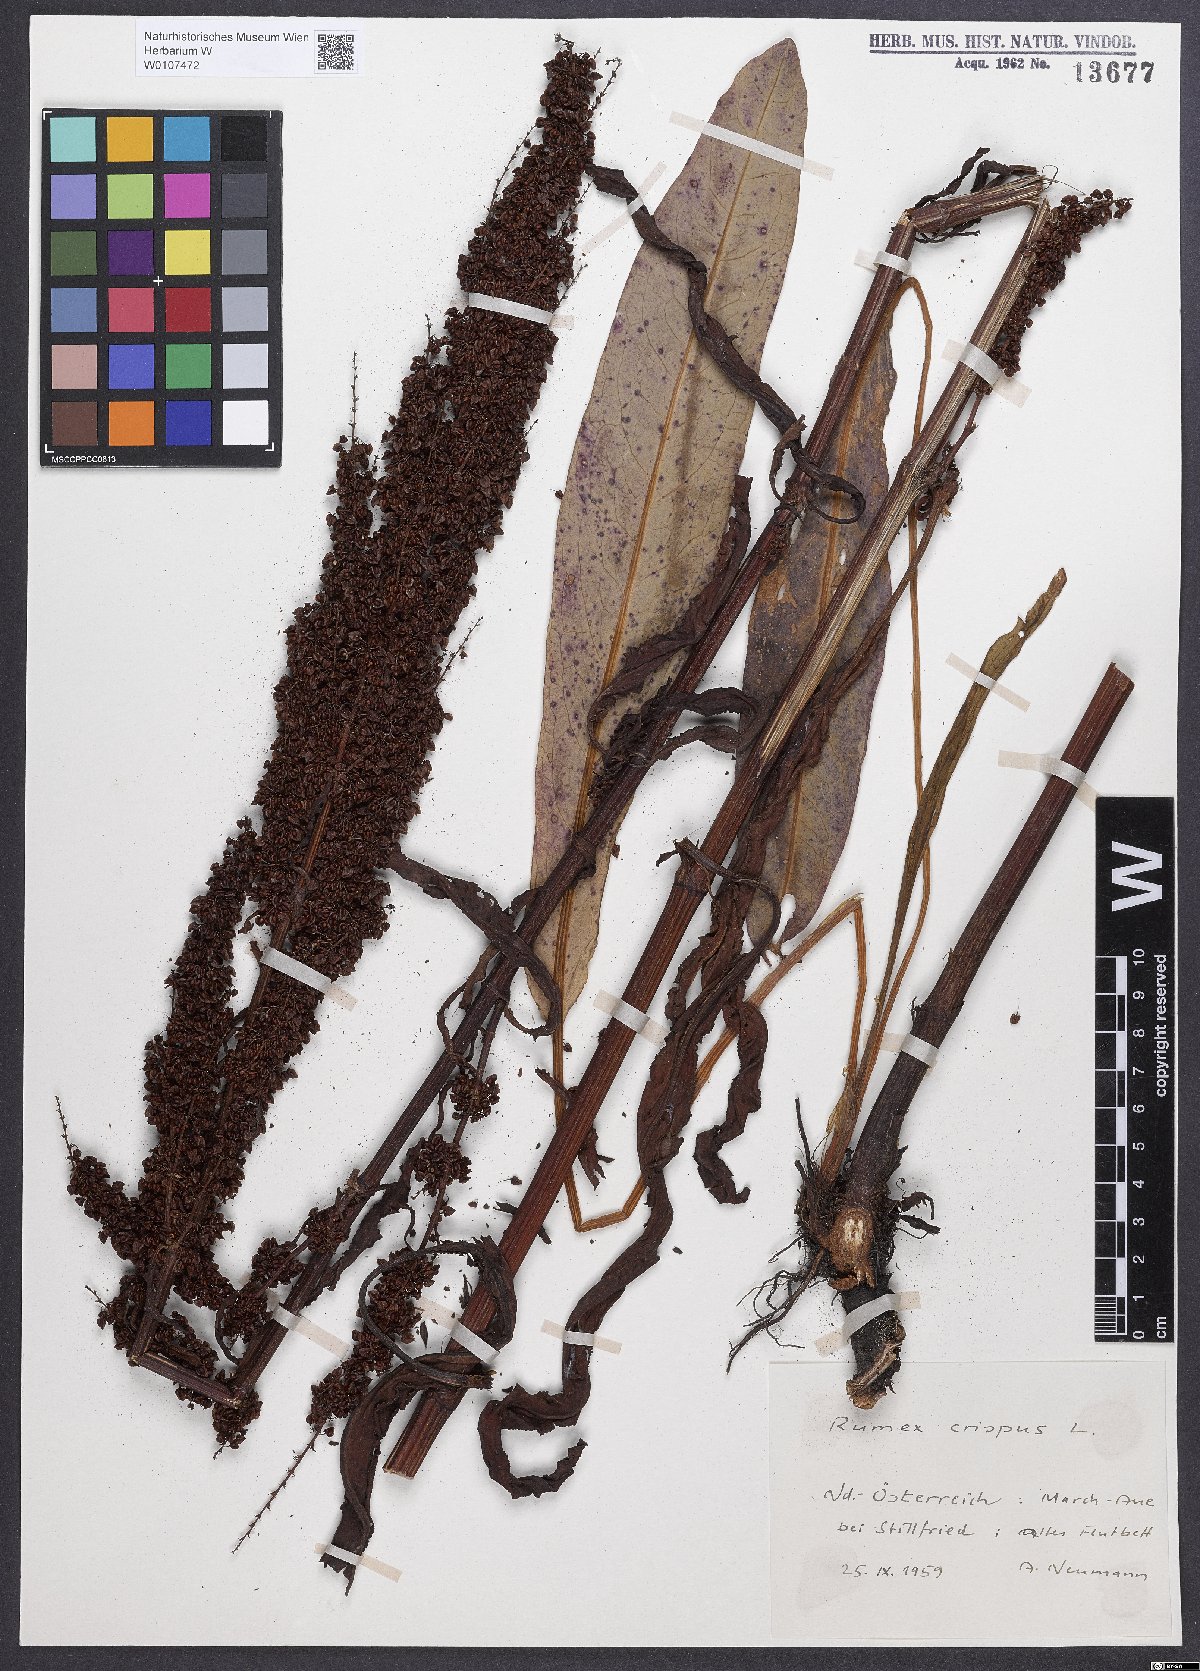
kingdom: Plantae
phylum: Tracheophyta
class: Magnoliopsida
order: Caryophyllales
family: Polygonaceae
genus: Rumex
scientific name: Rumex crispus
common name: Curled dock
